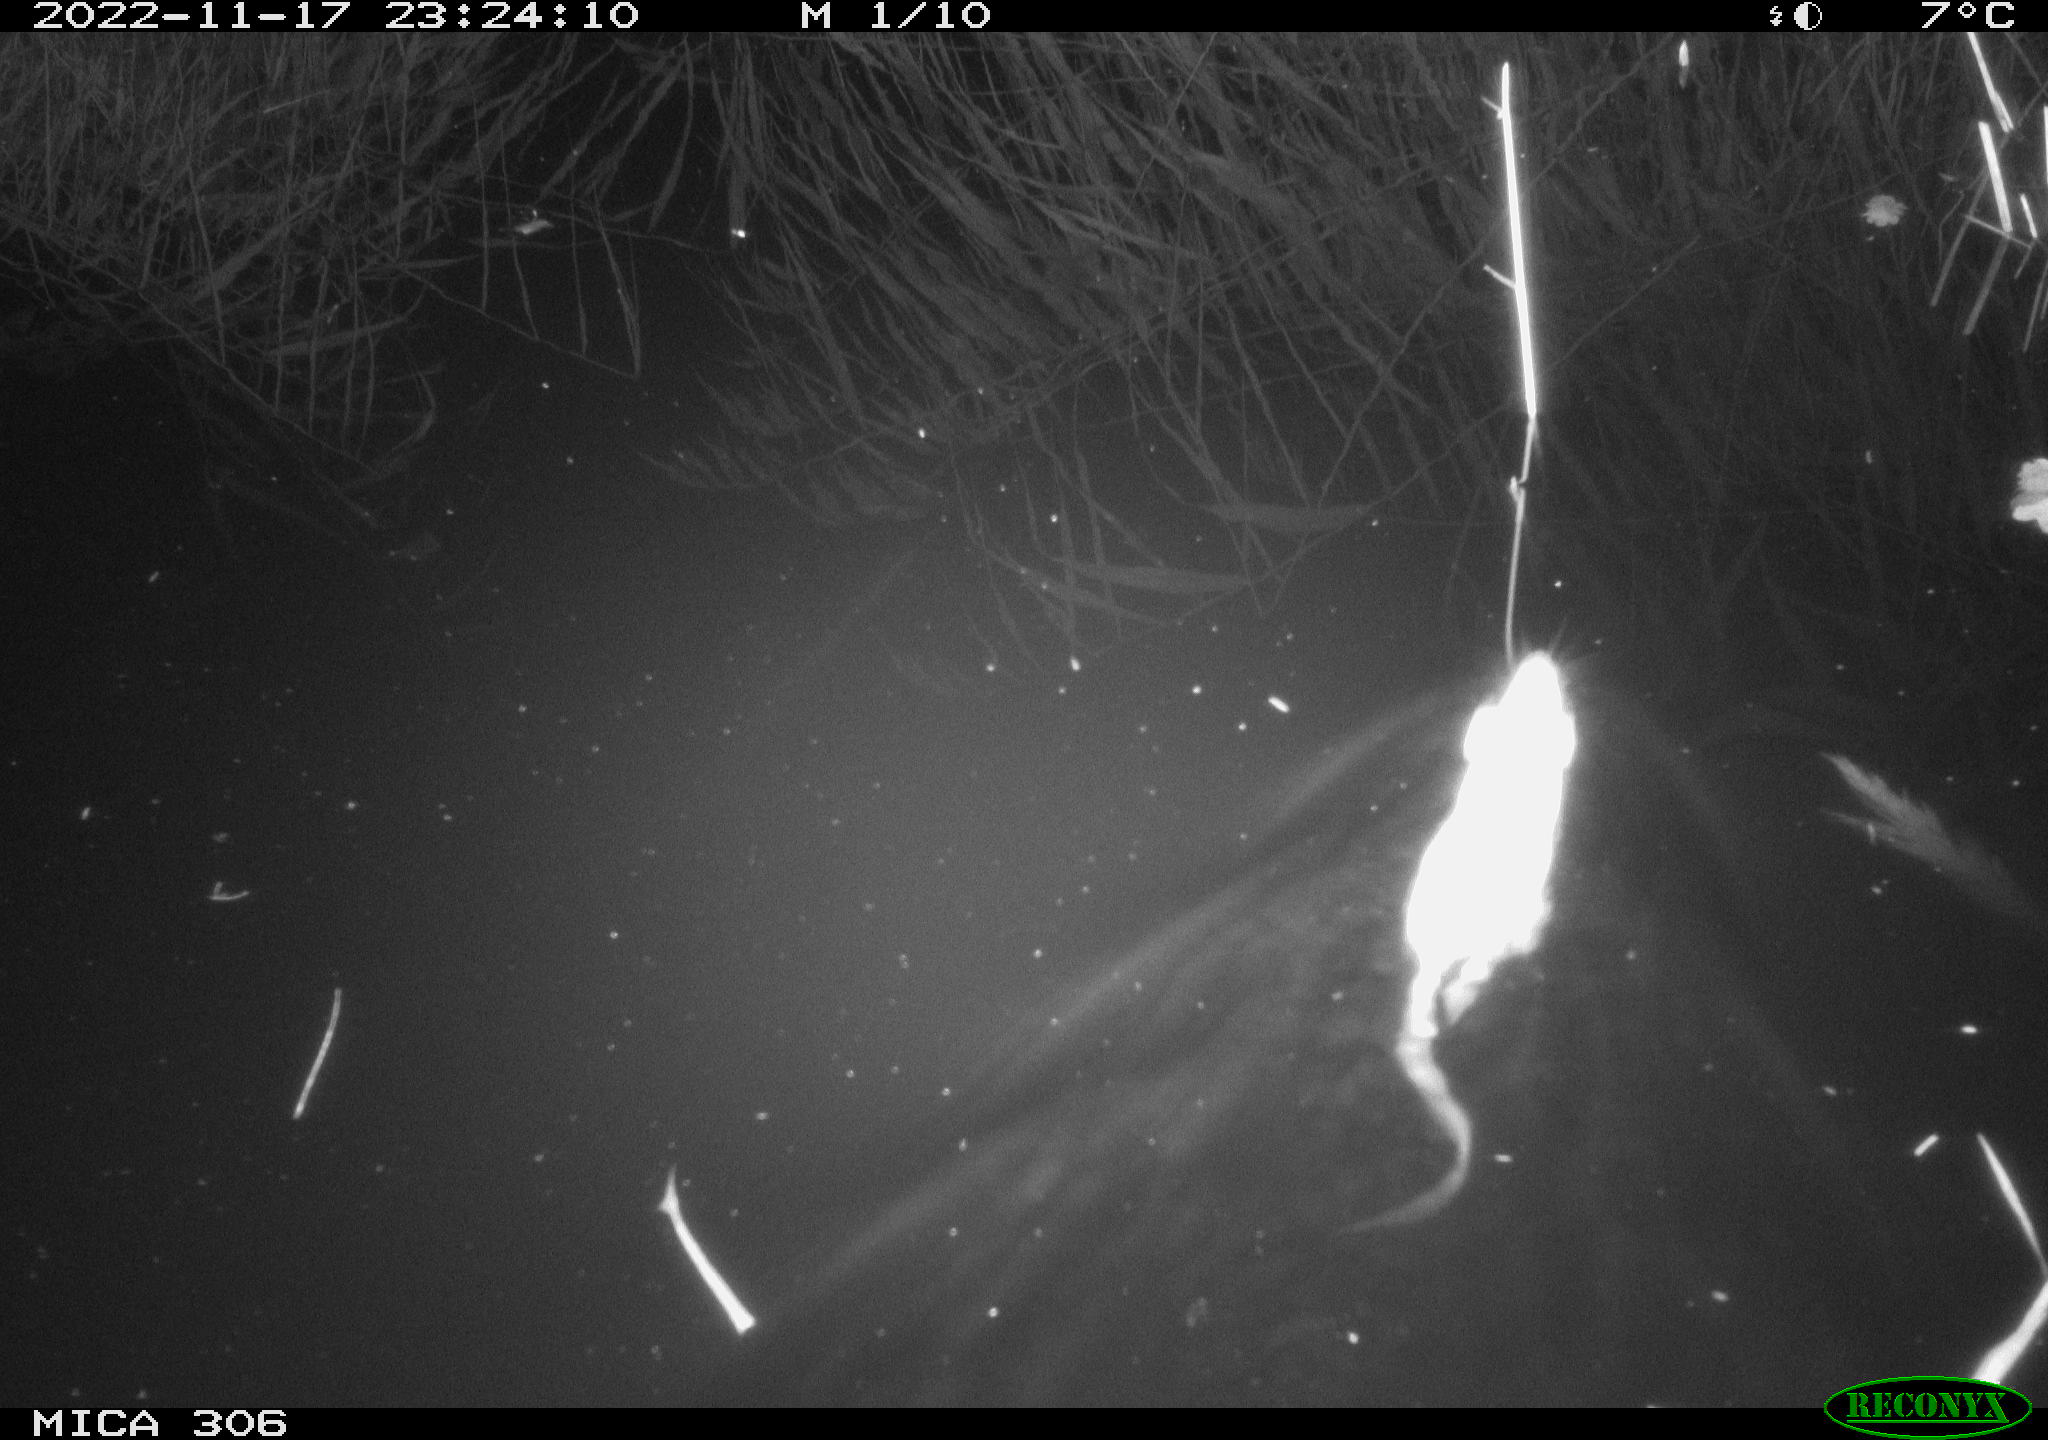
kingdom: Animalia
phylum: Chordata
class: Mammalia
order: Rodentia
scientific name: Rodentia
